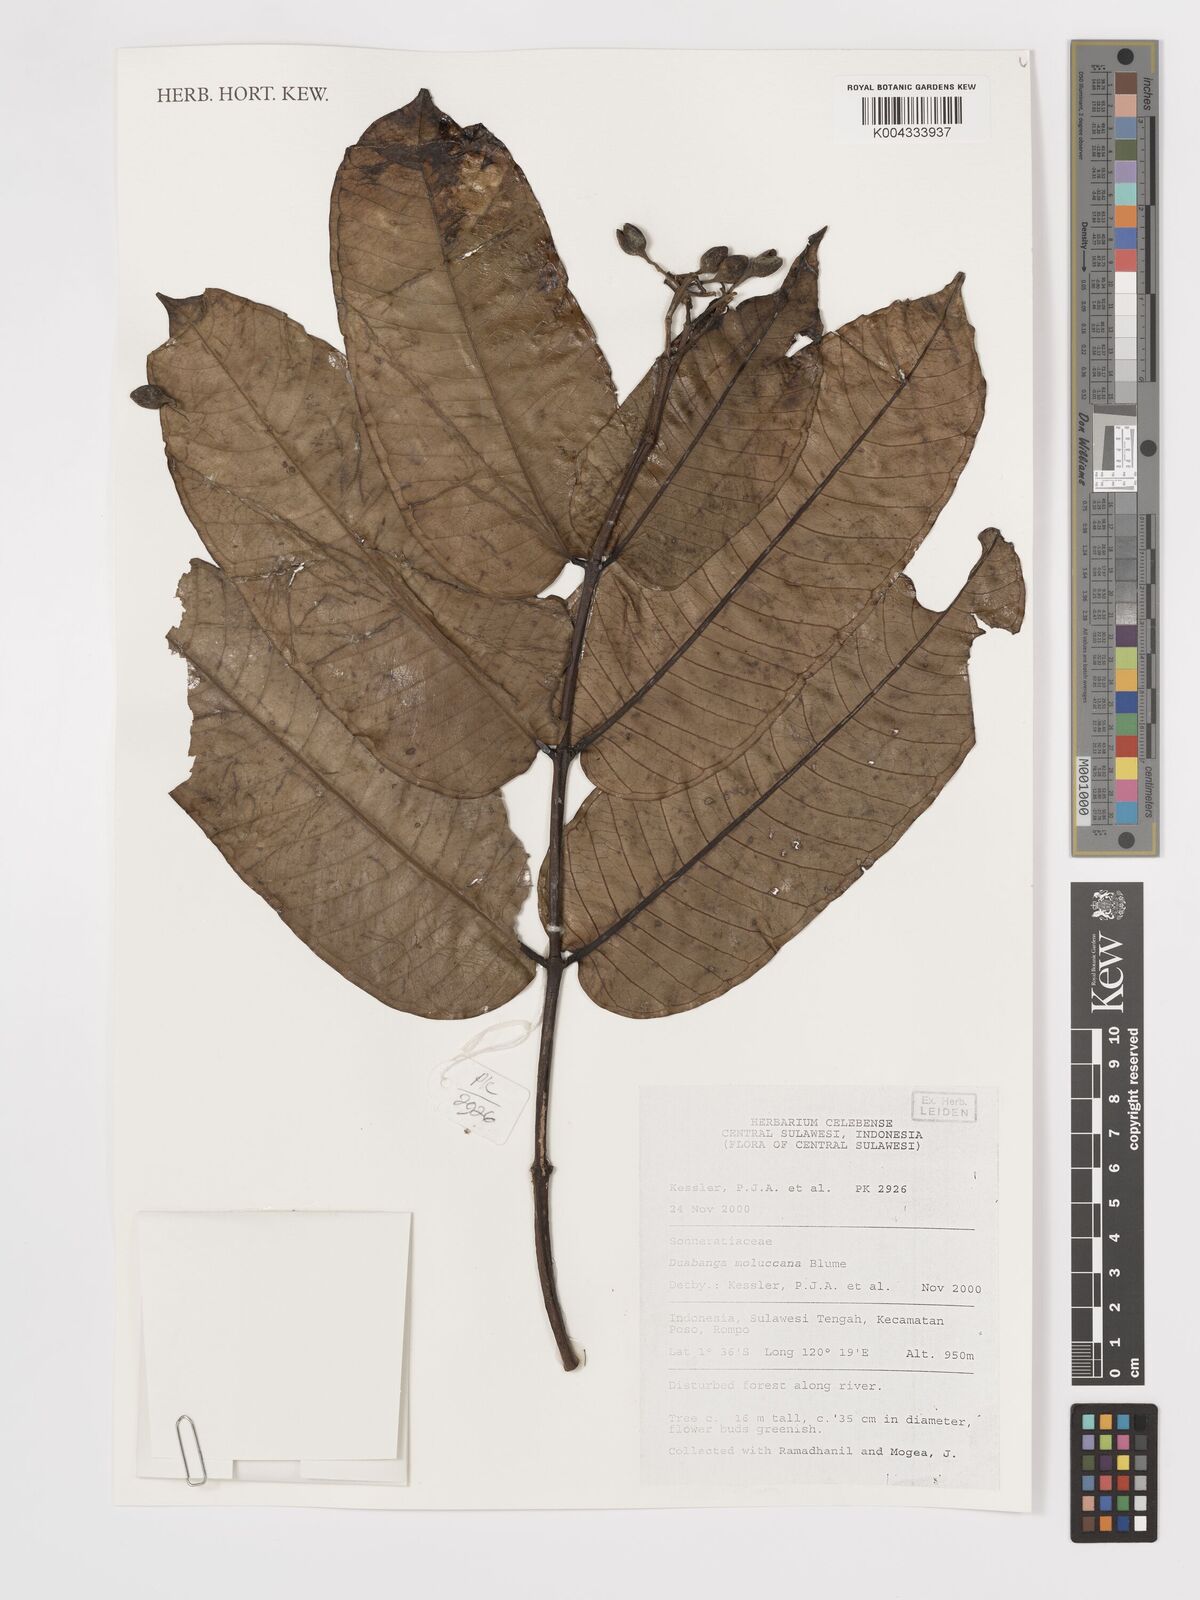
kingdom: Plantae
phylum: Tracheophyta
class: Magnoliopsida
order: Myrtales
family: Lythraceae
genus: Duabanga
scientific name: Duabanga moluccana
